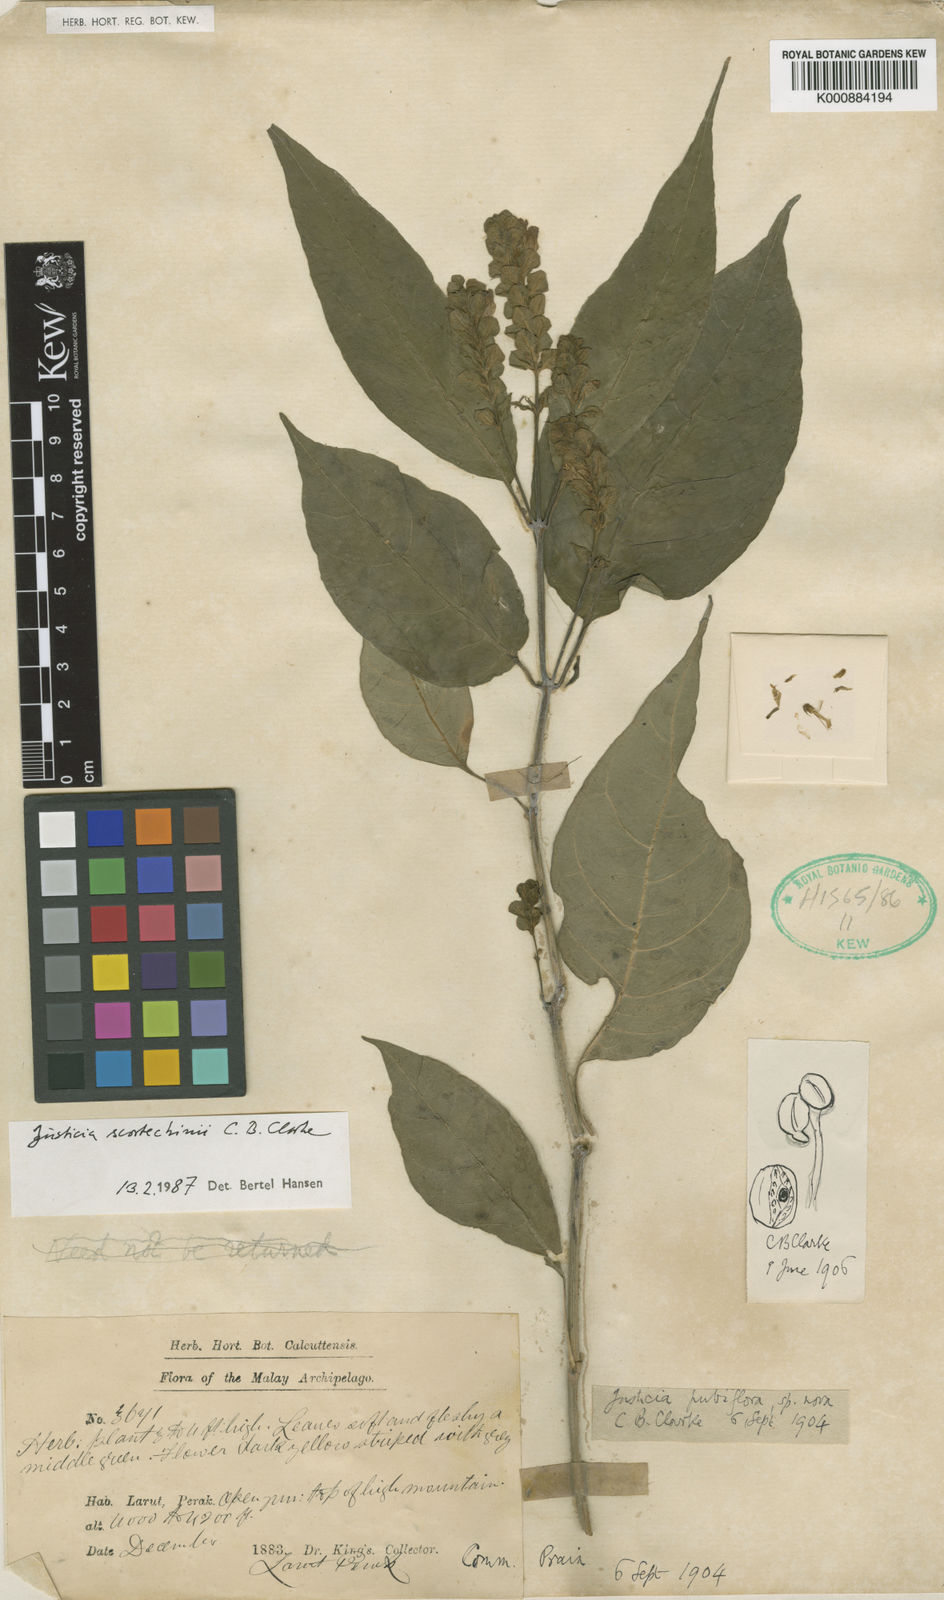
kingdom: Plantae
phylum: Tracheophyta
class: Magnoliopsida
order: Lamiales
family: Acanthaceae
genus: Justicia
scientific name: Justicia scortechinii
